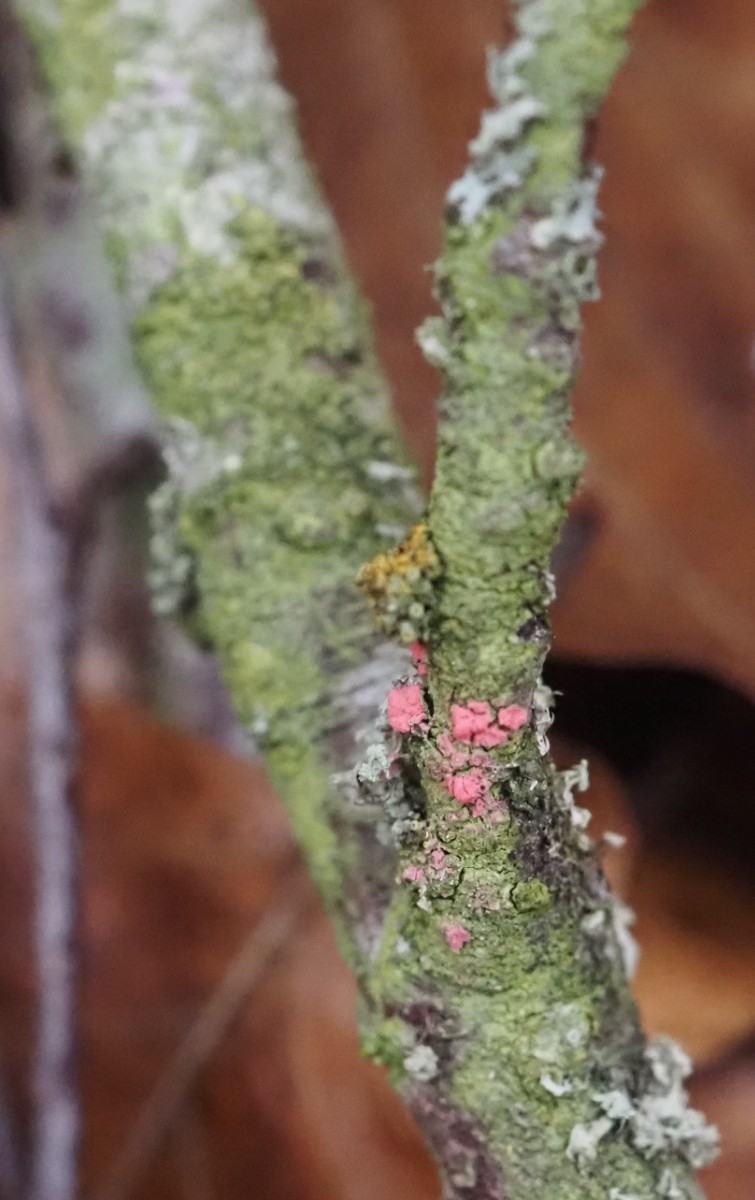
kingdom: Fungi
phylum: Ascomycota
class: Sordariomycetes
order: Hypocreales
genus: Illosporiopsis
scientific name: Illosporiopsis christiansenii
